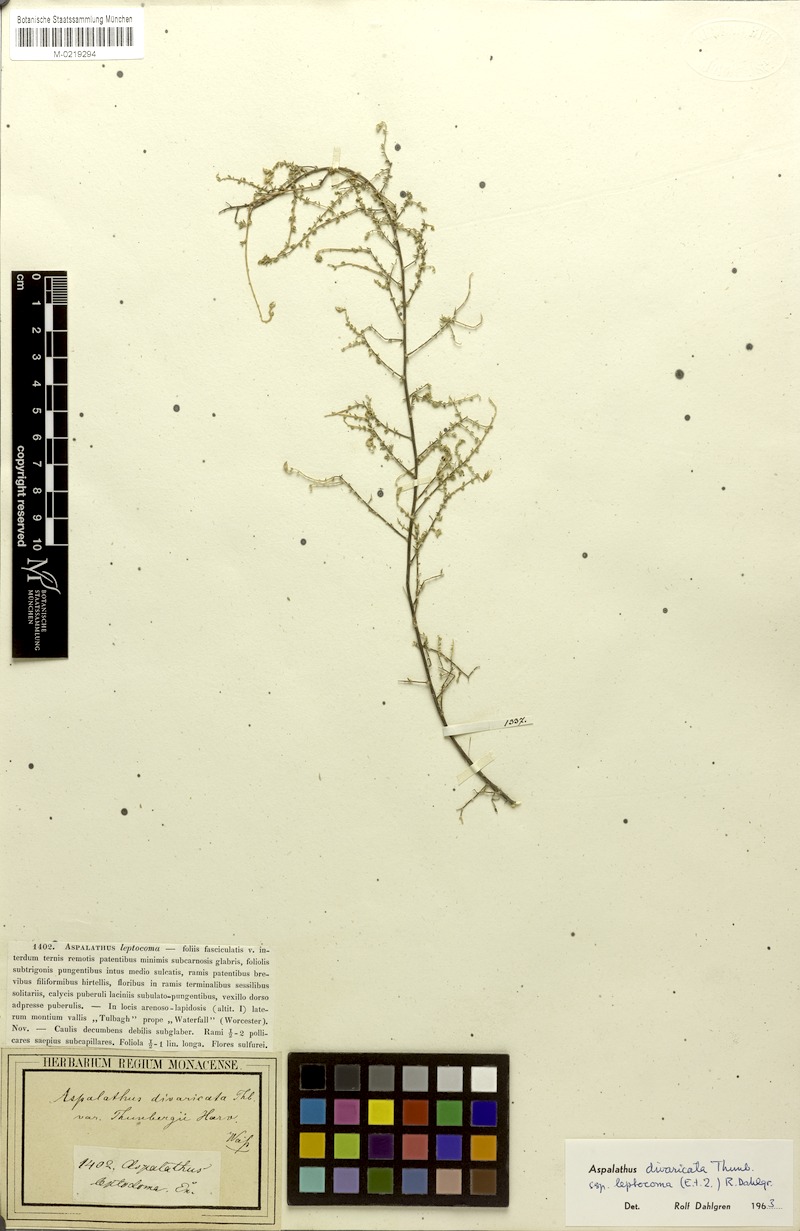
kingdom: Plantae
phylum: Tracheophyta
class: Magnoliopsida
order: Fabales
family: Fabaceae
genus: Aspalathus
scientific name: Aspalathus leptocoma
